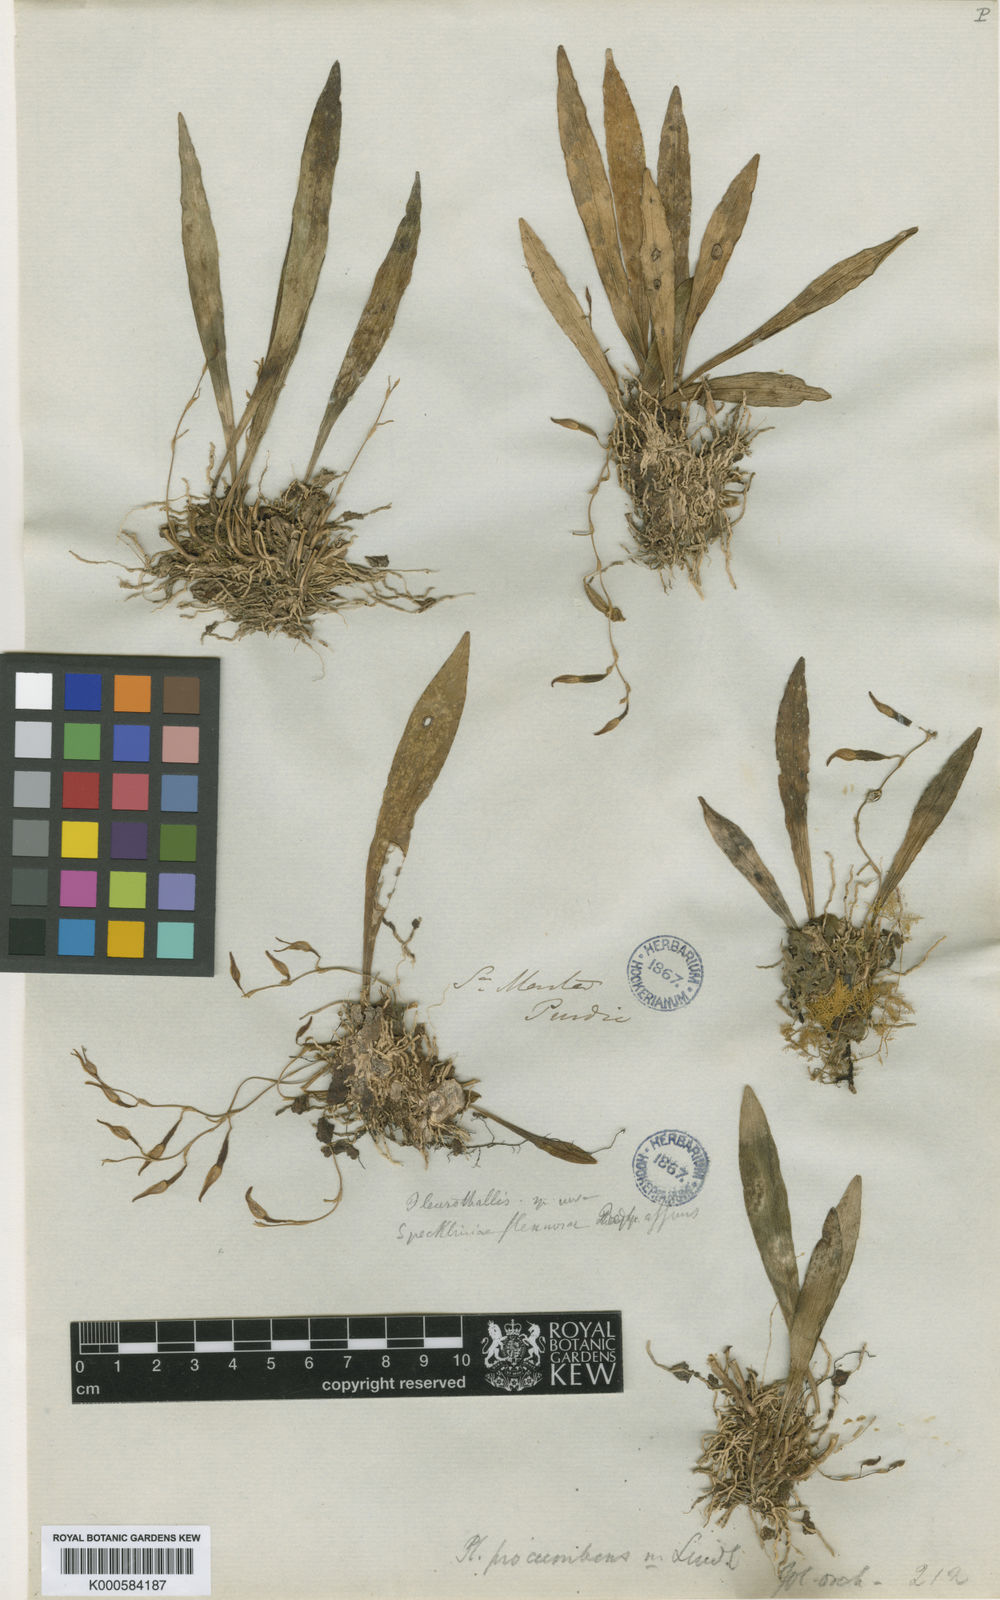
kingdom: Plantae
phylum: Tracheophyta
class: Liliopsida
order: Asparagales
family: Orchidaceae
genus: Pabstiella
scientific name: Pabstiella tripterantha
